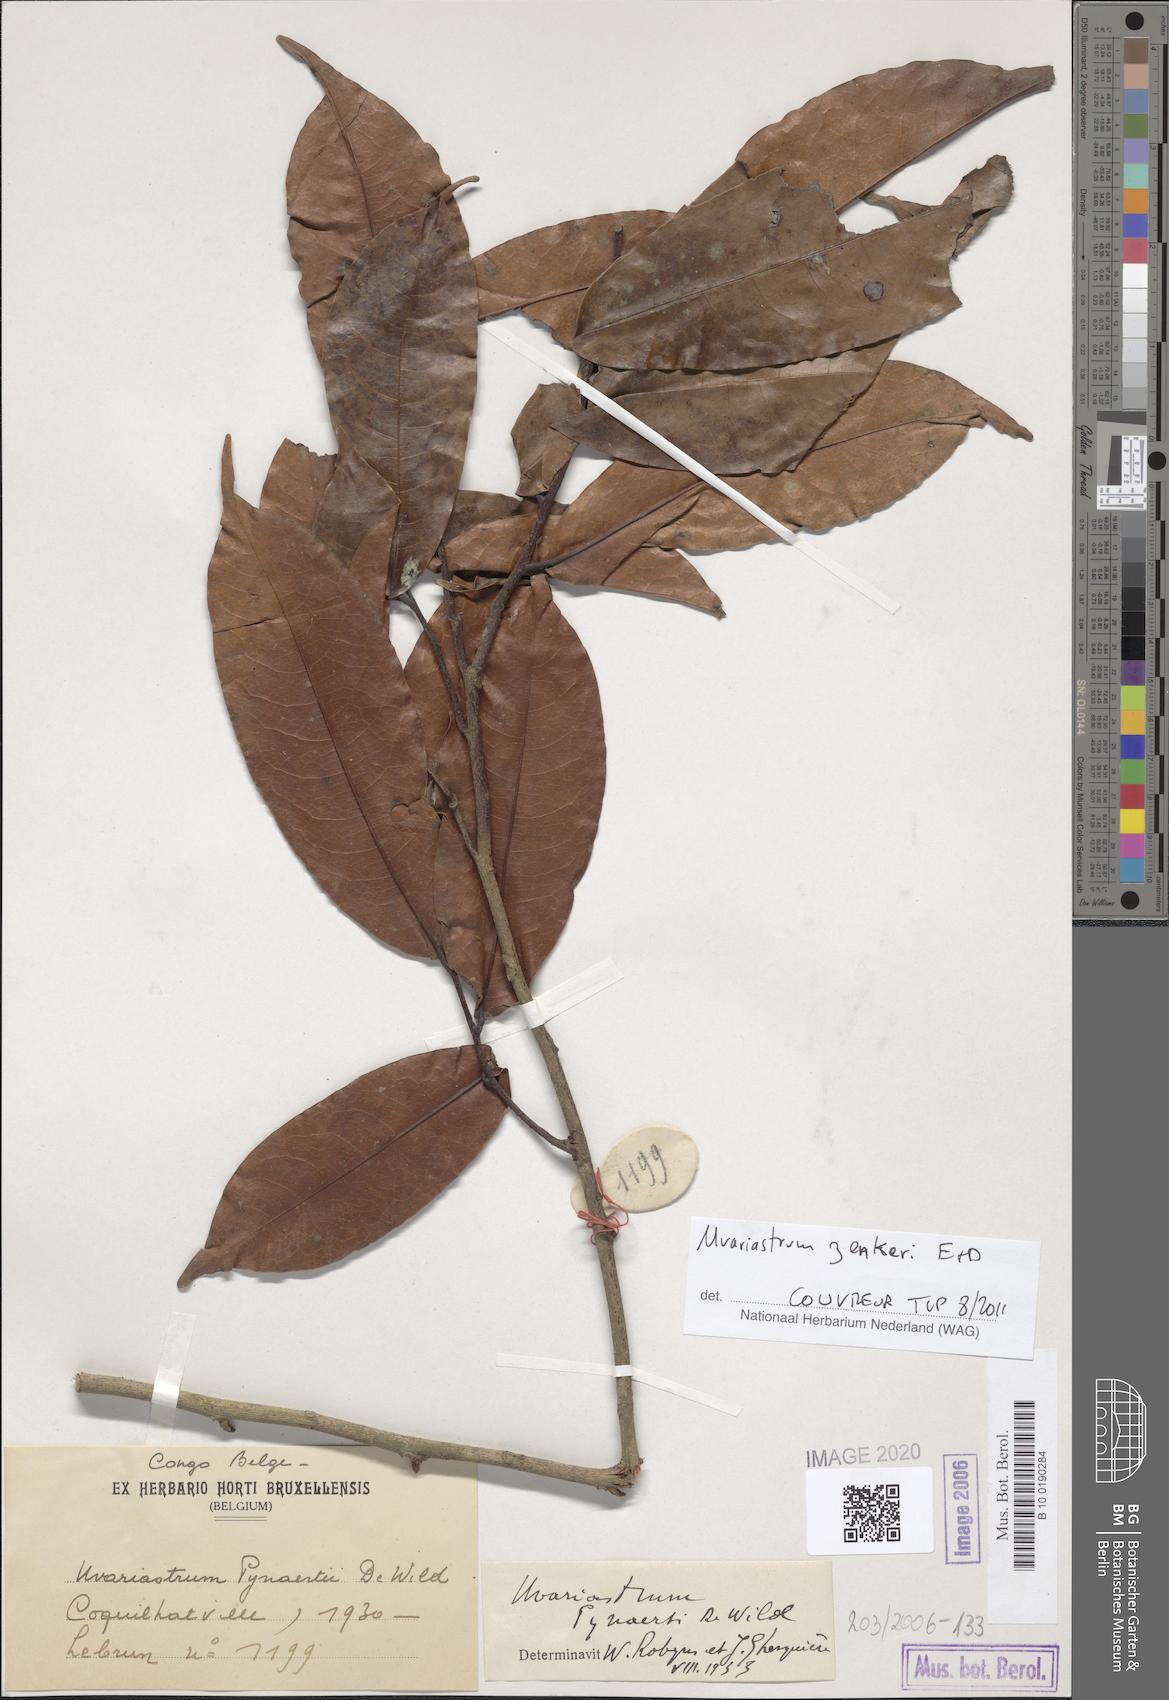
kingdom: Plantae
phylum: Tracheophyta
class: Magnoliopsida
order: Magnoliales
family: Annonaceae
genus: Uvariastrum
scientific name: Uvariastrum pynaertii
